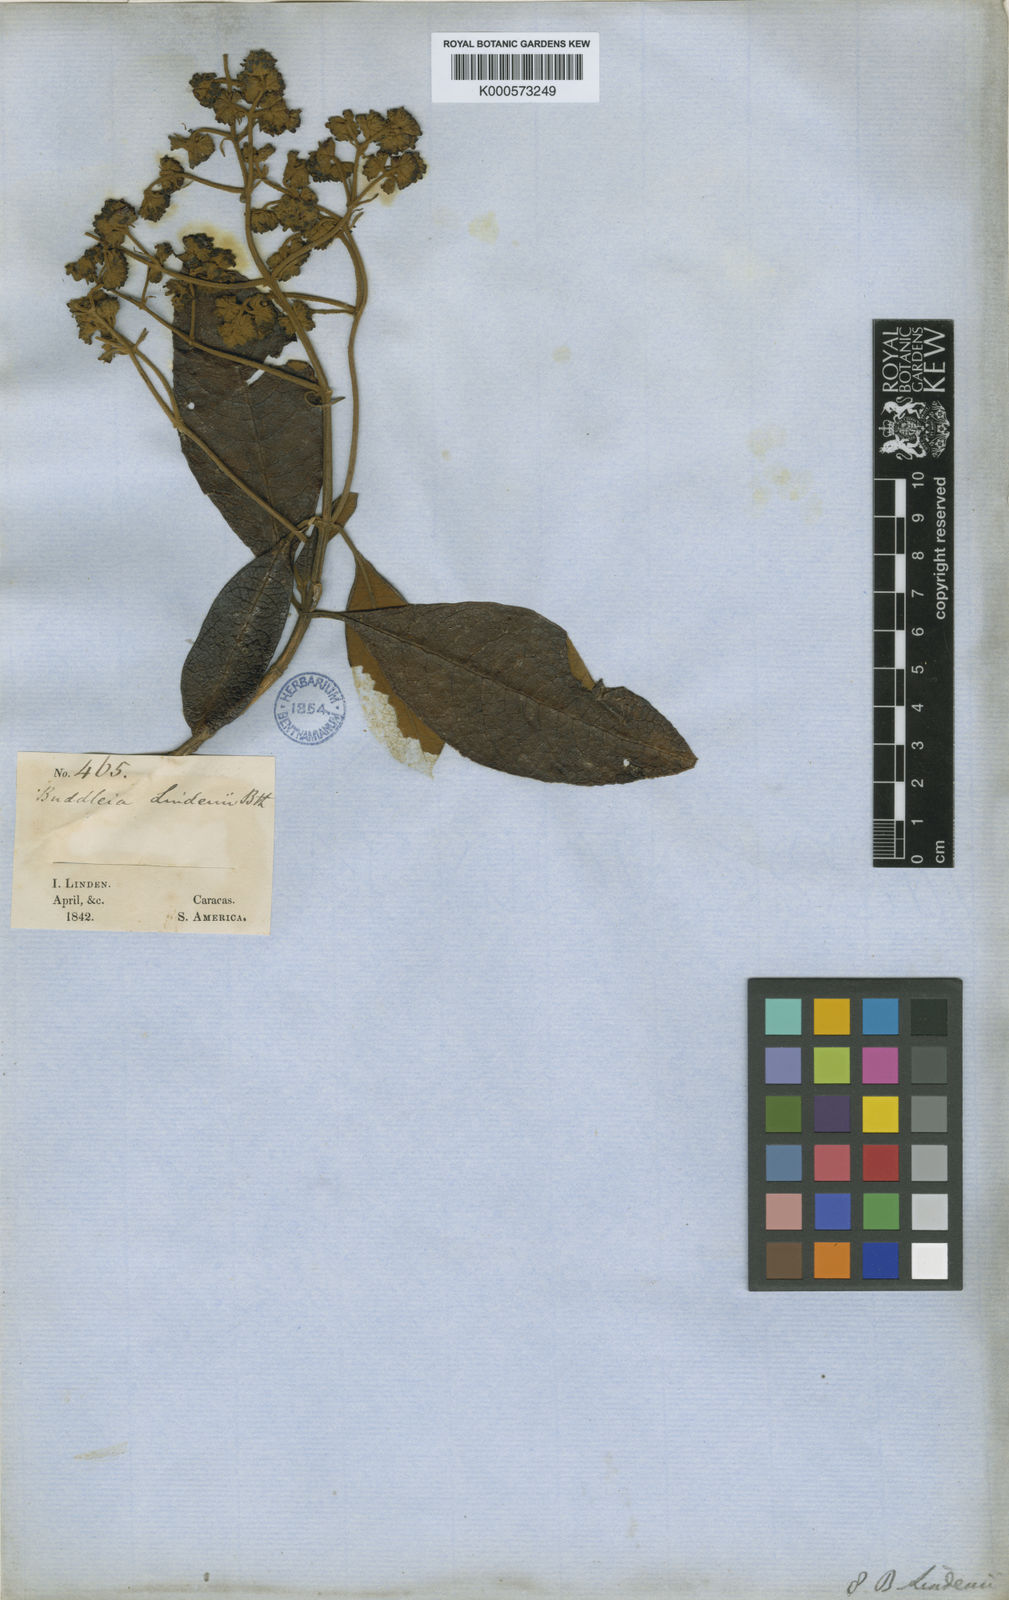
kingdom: Plantae
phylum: Tracheophyta
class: Magnoliopsida
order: Lamiales
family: Scrophulariaceae
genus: Buddleja
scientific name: Buddleja bullata
